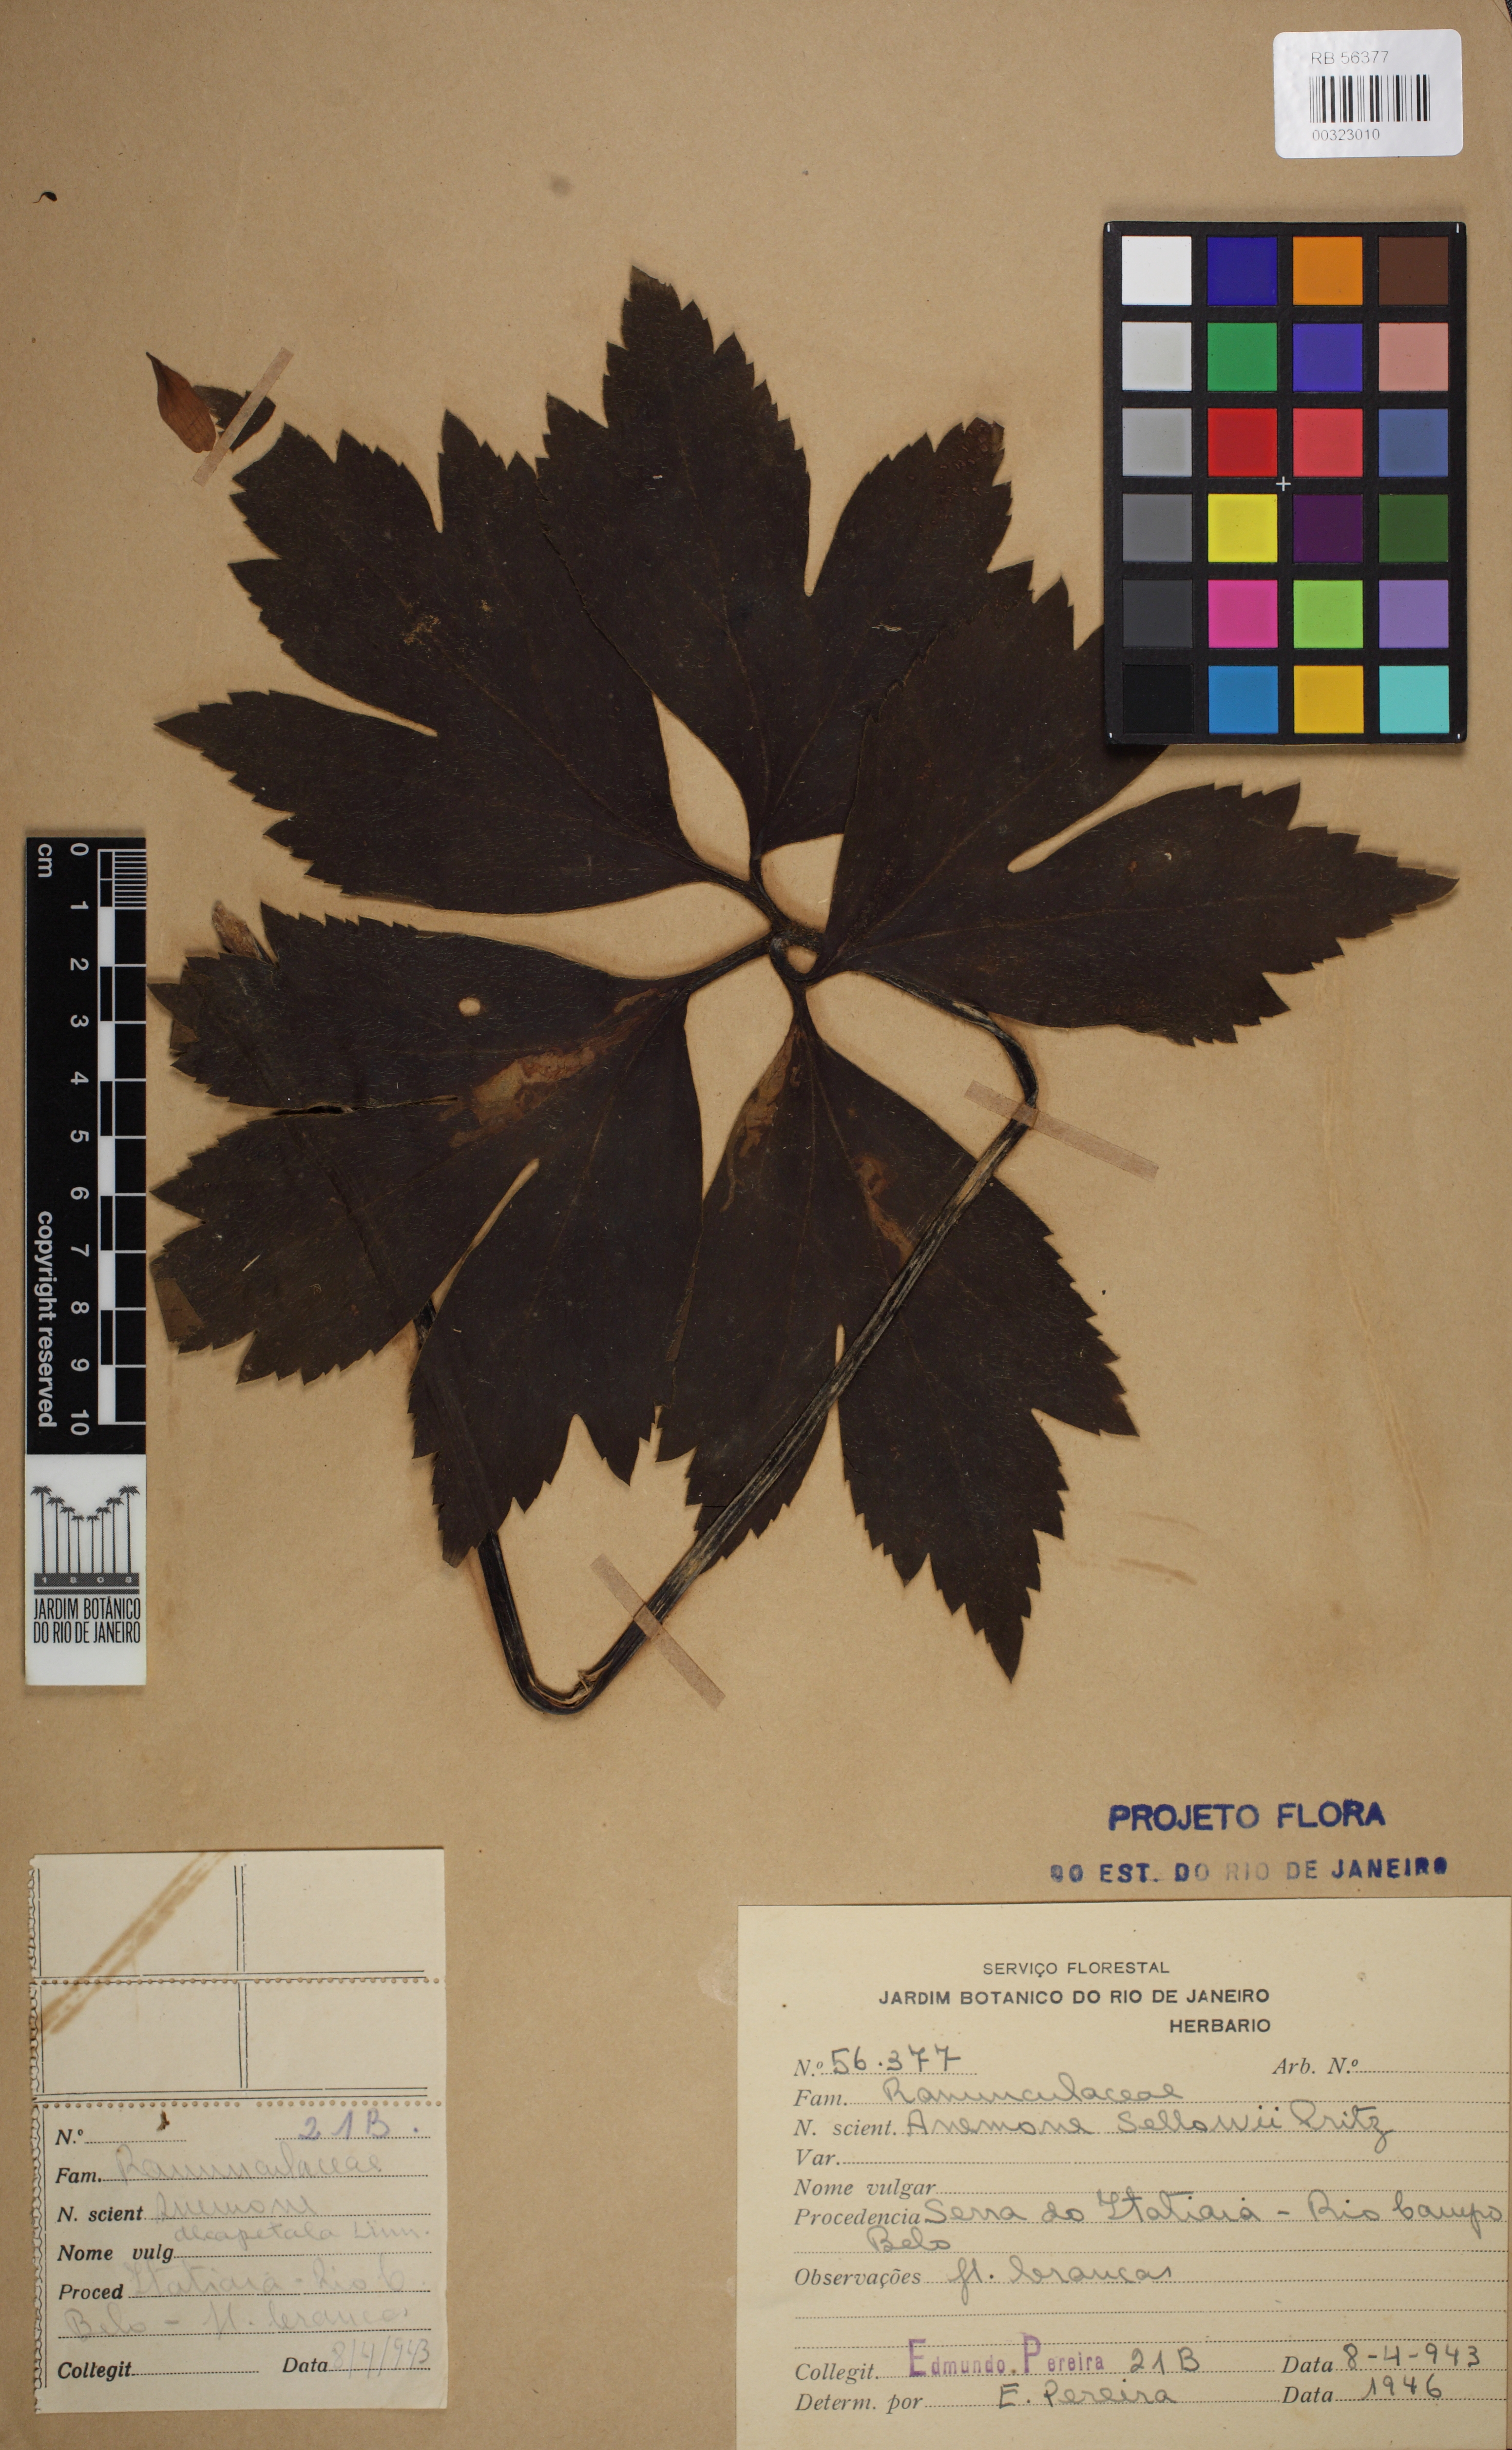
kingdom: Plantae
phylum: Tracheophyta
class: Magnoliopsida
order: Ranunculales
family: Ranunculaceae
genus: Knowltonia
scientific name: Knowltonia sellowii
